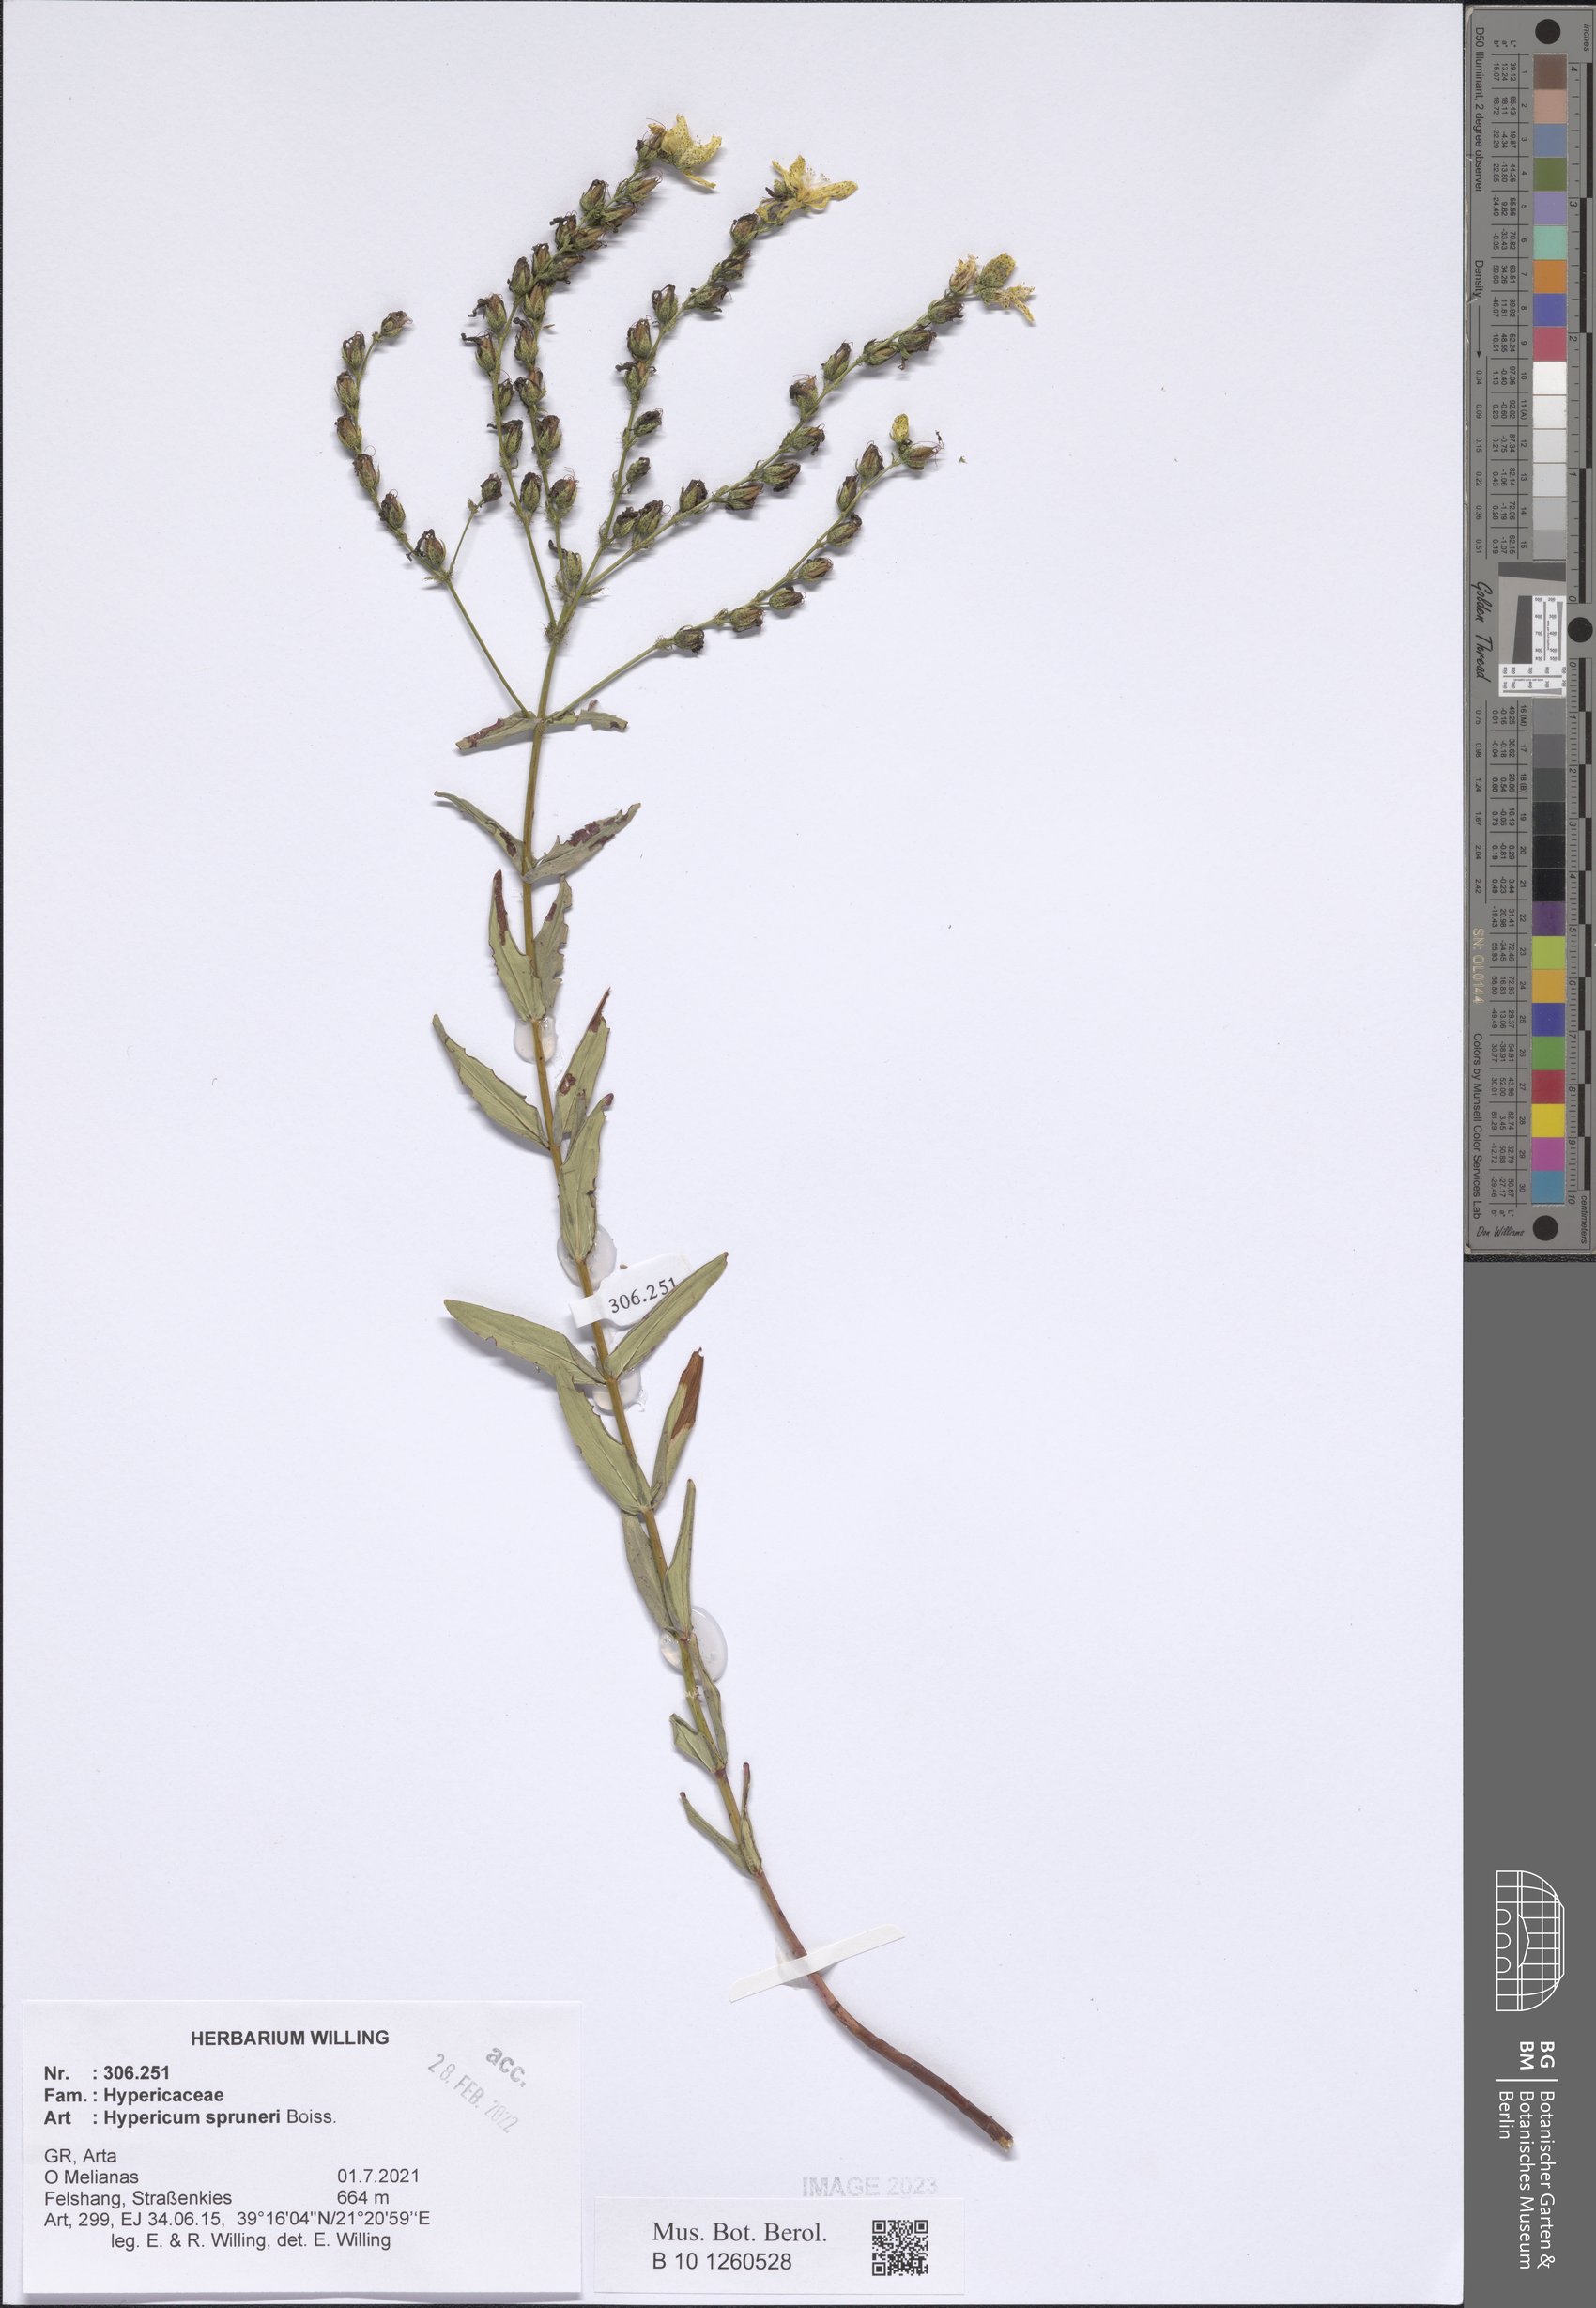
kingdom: Plantae
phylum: Tracheophyta
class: Magnoliopsida
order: Malpighiales
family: Hypericaceae
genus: Hypericum
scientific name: Hypericum spruneri
